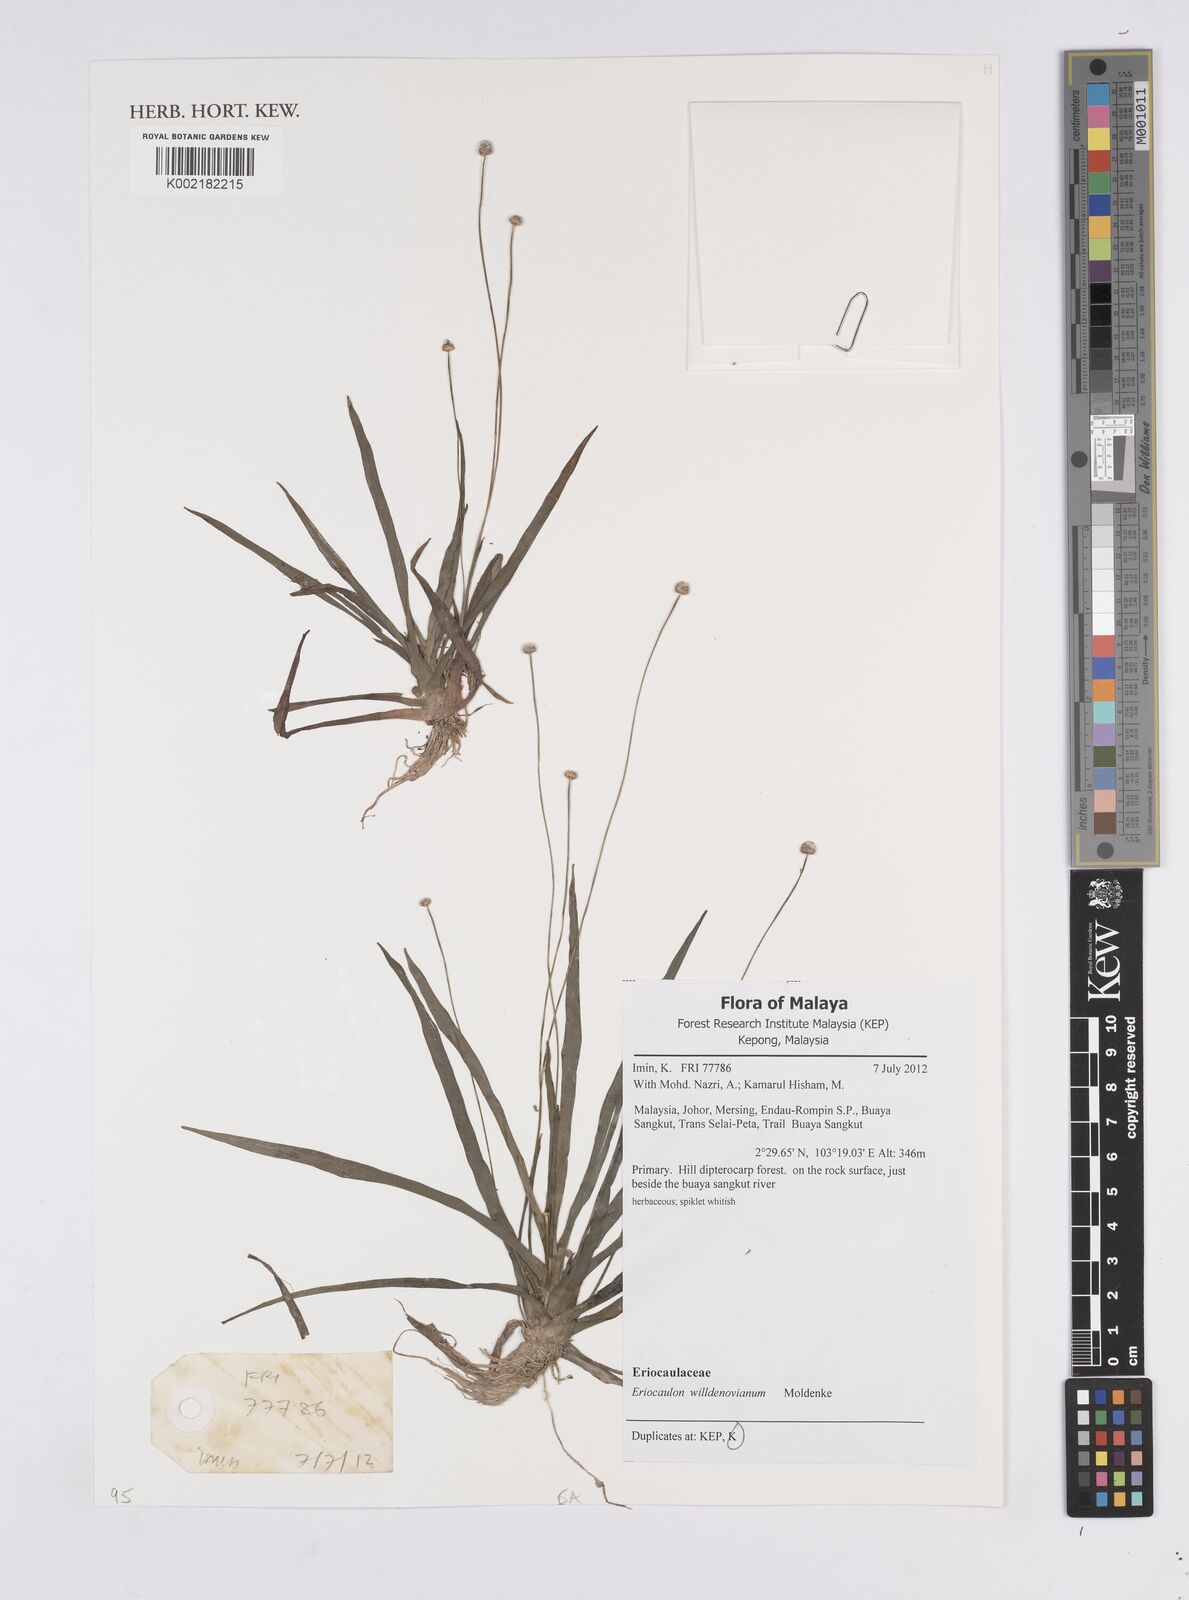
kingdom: Plantae
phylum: Tracheophyta
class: Liliopsida
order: Poales
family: Eriocaulaceae
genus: Eriocaulon
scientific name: Eriocaulon willdenovianum
